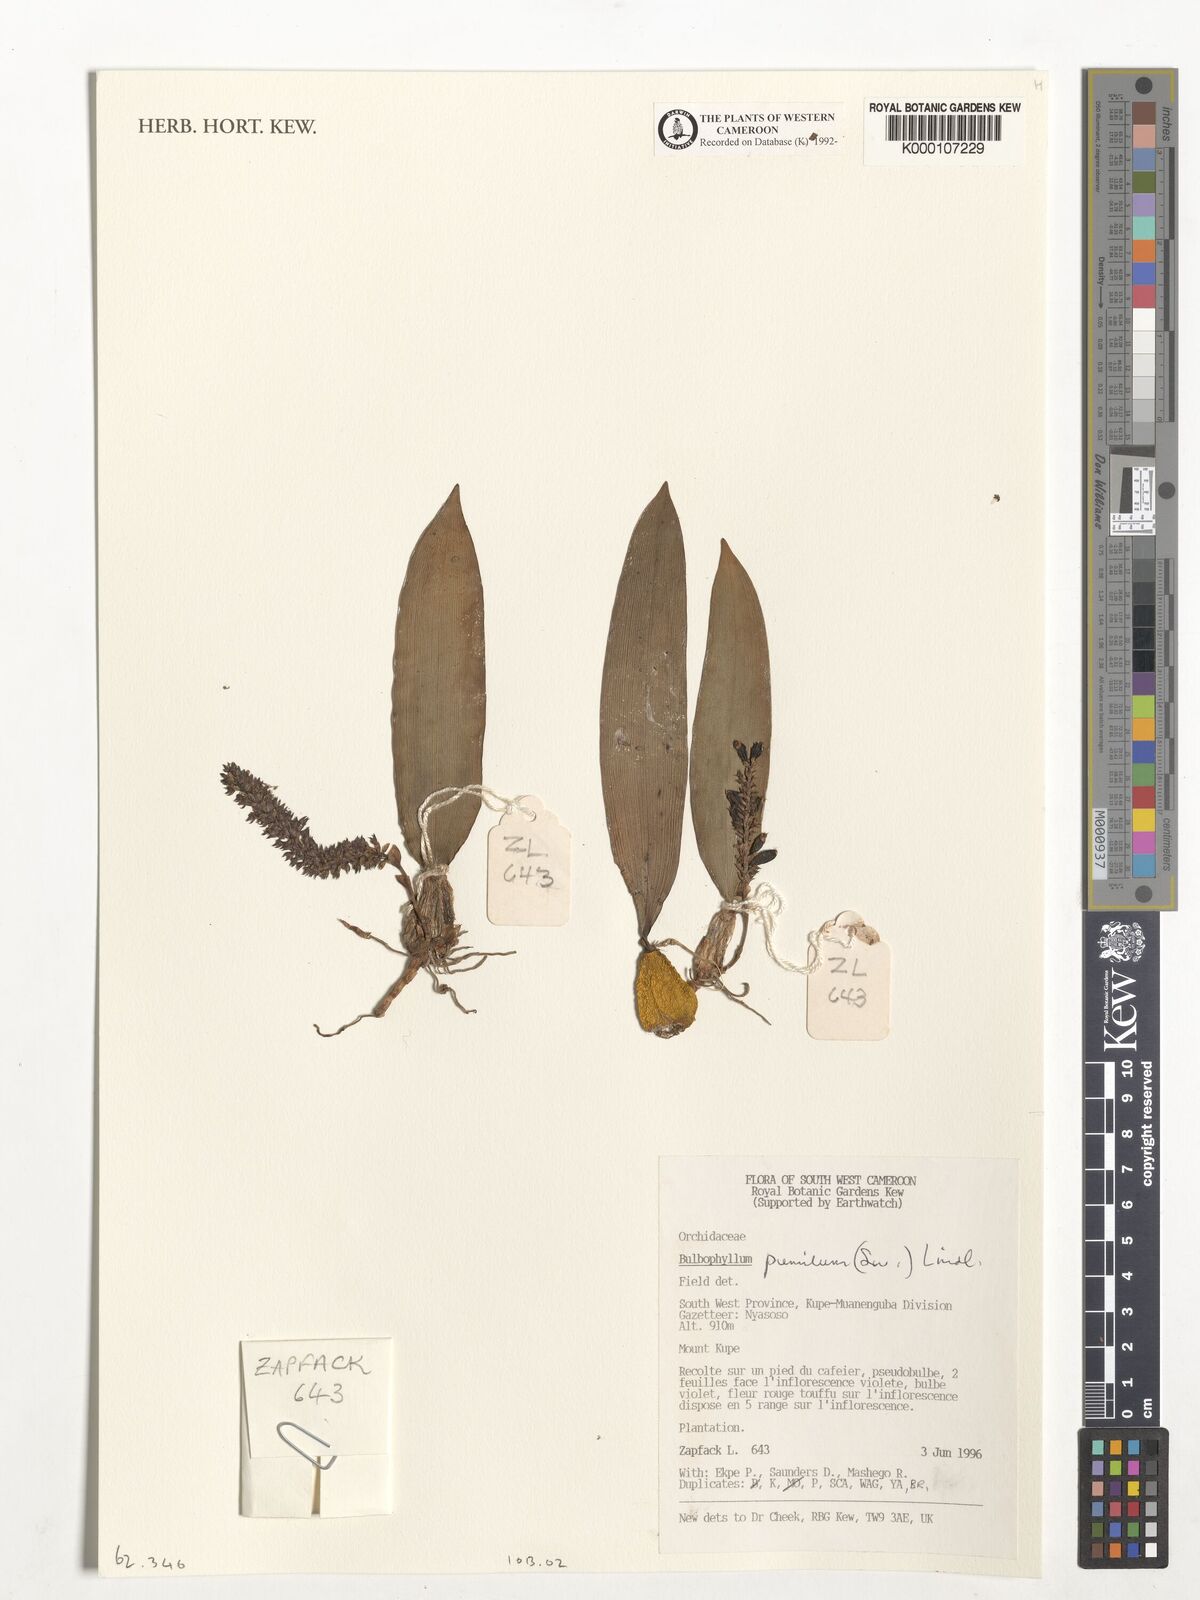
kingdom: Plantae
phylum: Tracheophyta
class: Liliopsida
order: Asparagales
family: Orchidaceae
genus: Bulbophyllum
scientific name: Bulbophyllum pumilum
